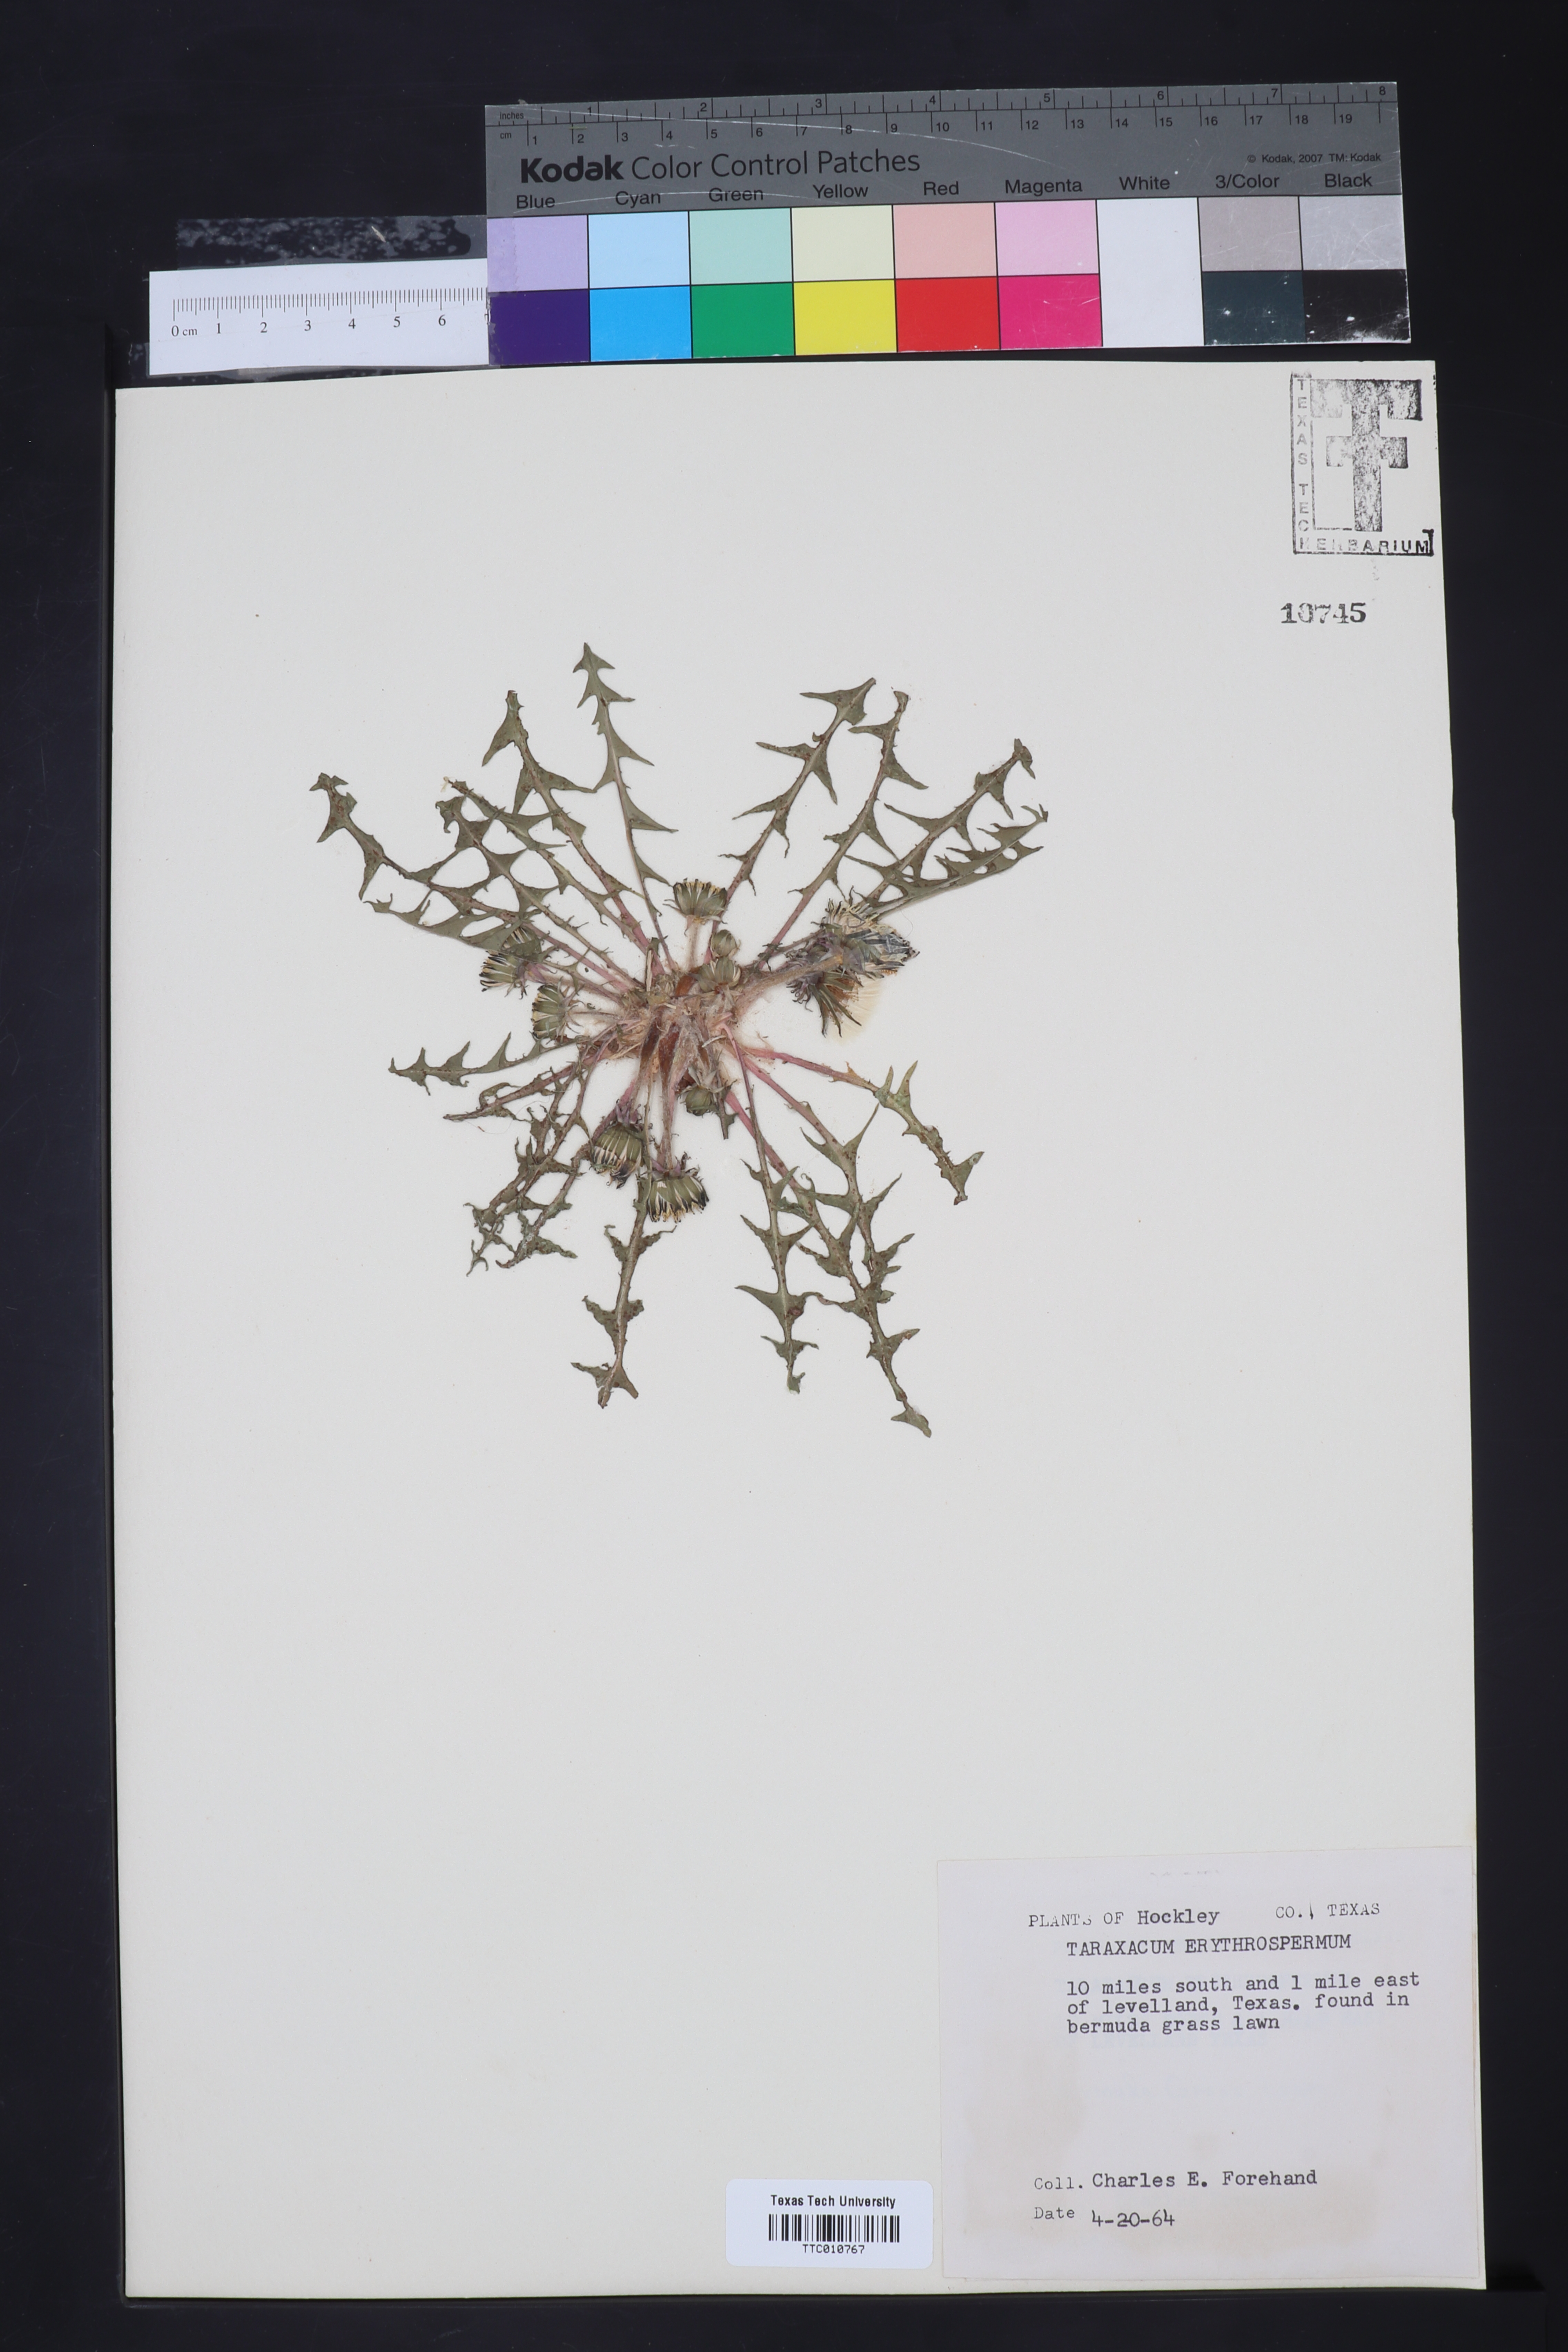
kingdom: Plantae
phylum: Tracheophyta
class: Magnoliopsida
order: Asterales
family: Asteraceae
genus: Taraxacum
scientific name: Taraxacum erythrospermum
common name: Rock dandelion
